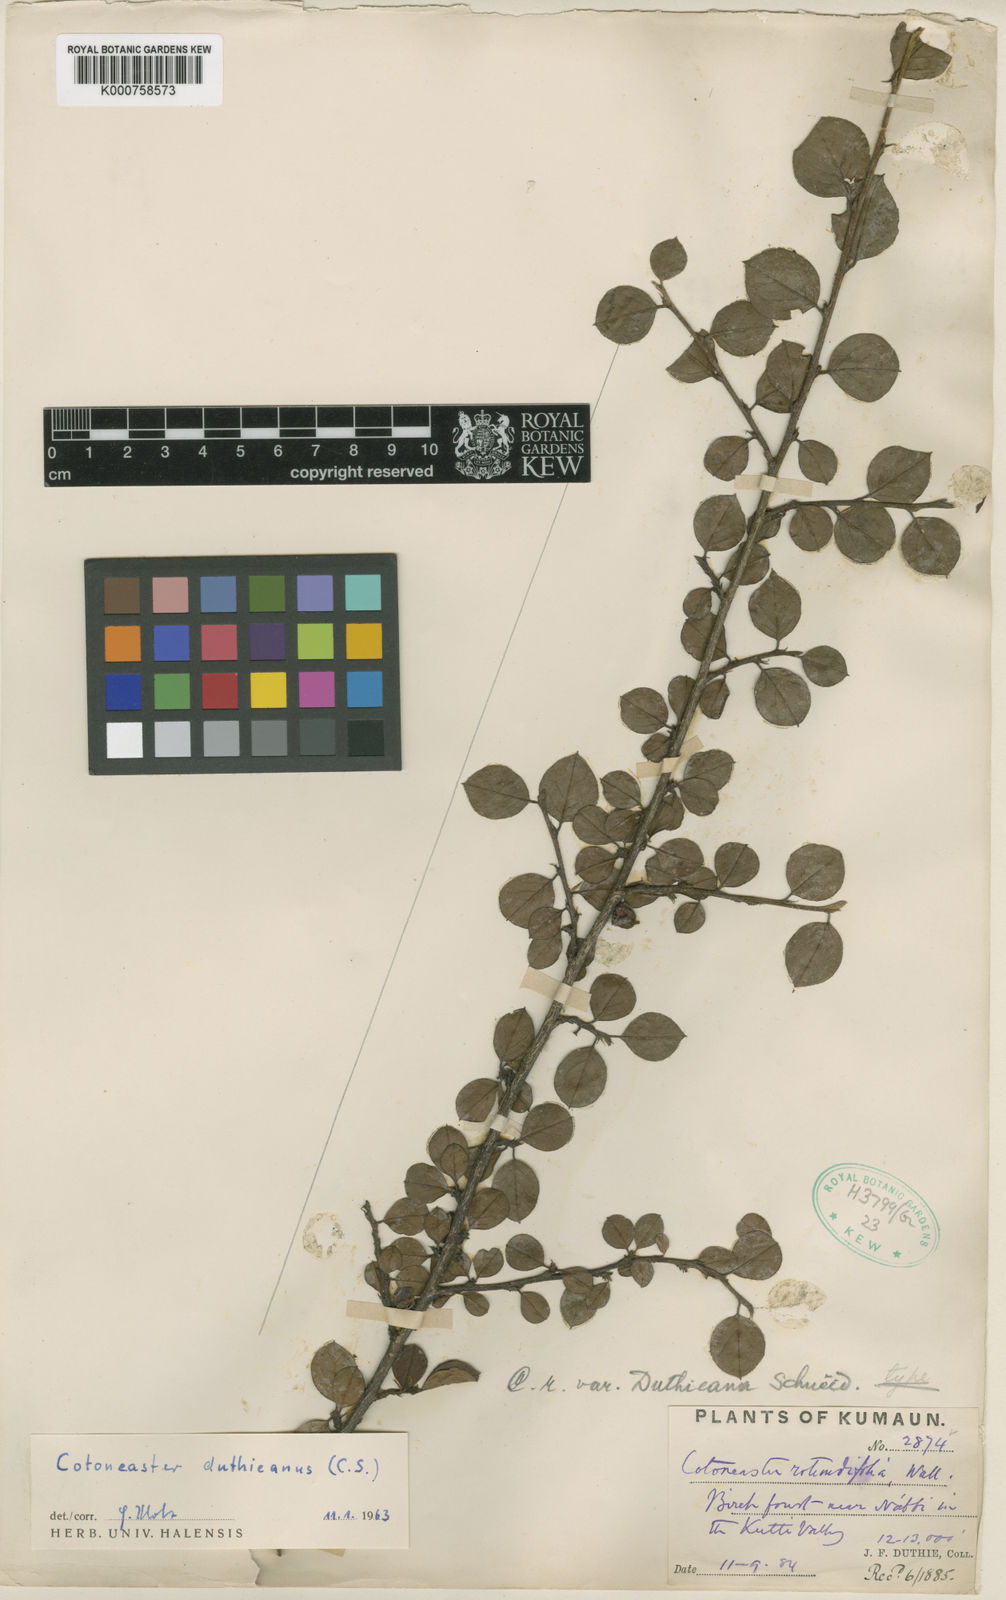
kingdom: Plantae
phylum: Tracheophyta
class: Magnoliopsida
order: Rosales
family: Rosaceae
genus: Cotoneaster
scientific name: Cotoneaster nitidus
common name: Distichous cotoneaster
